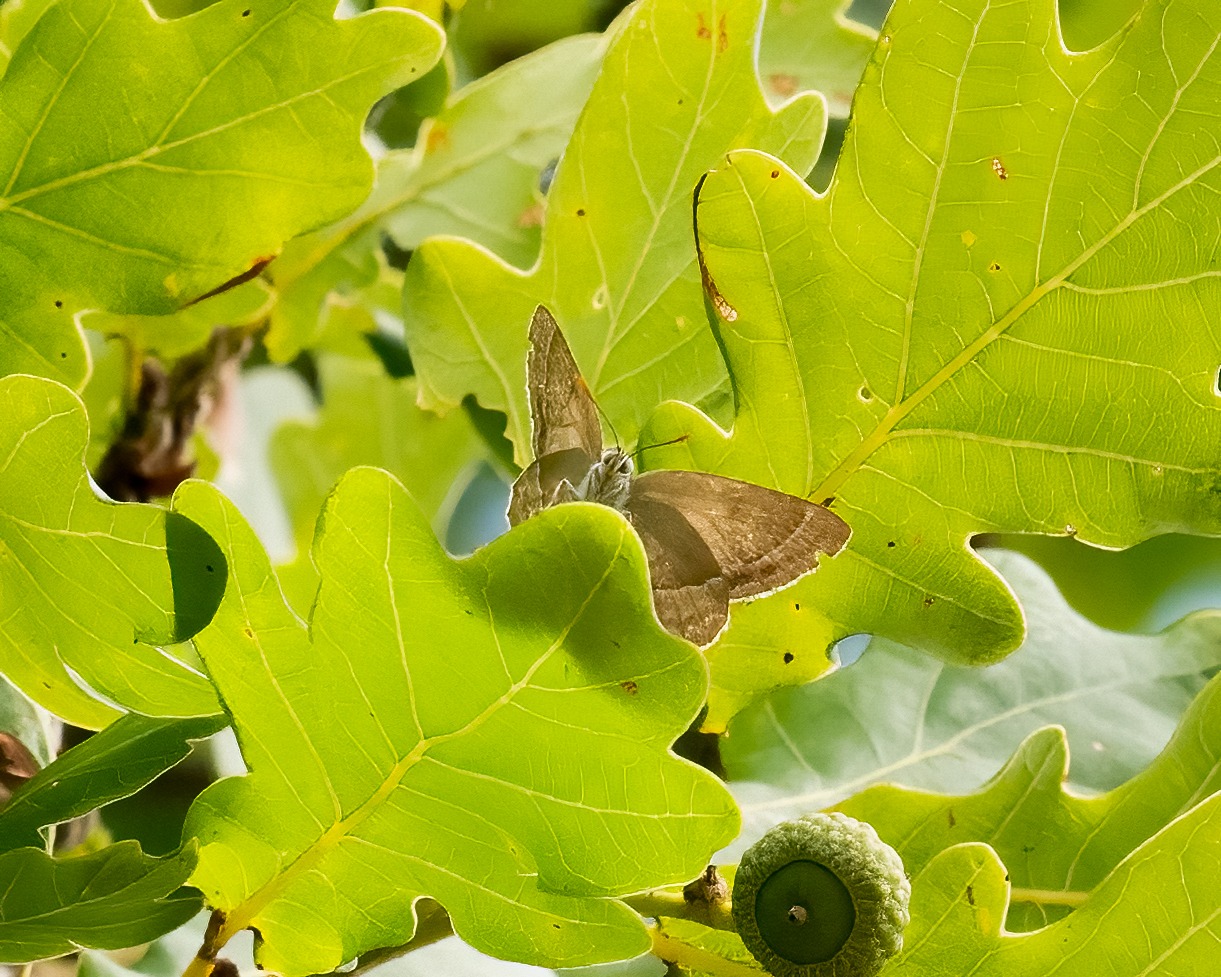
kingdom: Animalia
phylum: Arthropoda
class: Insecta
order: Lepidoptera
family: Lycaenidae
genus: Quercusia
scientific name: Quercusia quercus
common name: Blåhale
